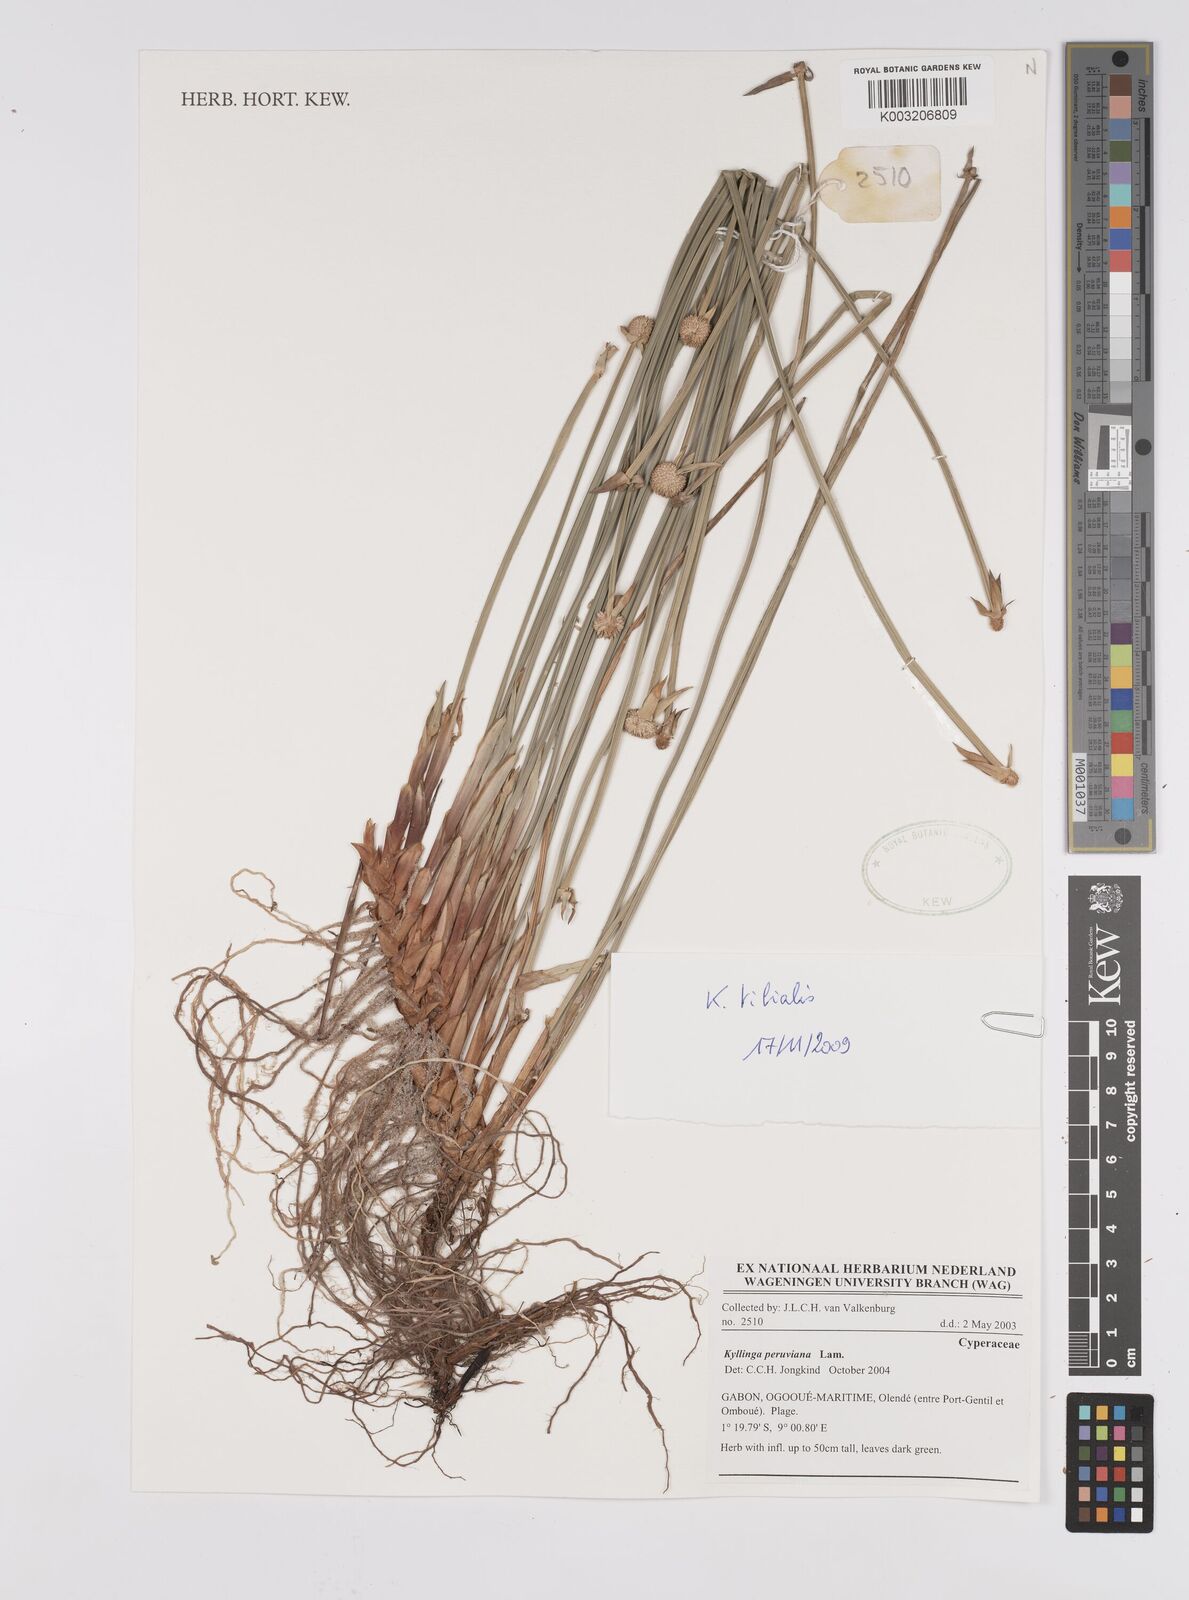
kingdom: Plantae
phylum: Tracheophyta
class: Liliopsida
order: Poales
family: Cyperaceae
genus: Cyperus
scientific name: Cyperus
